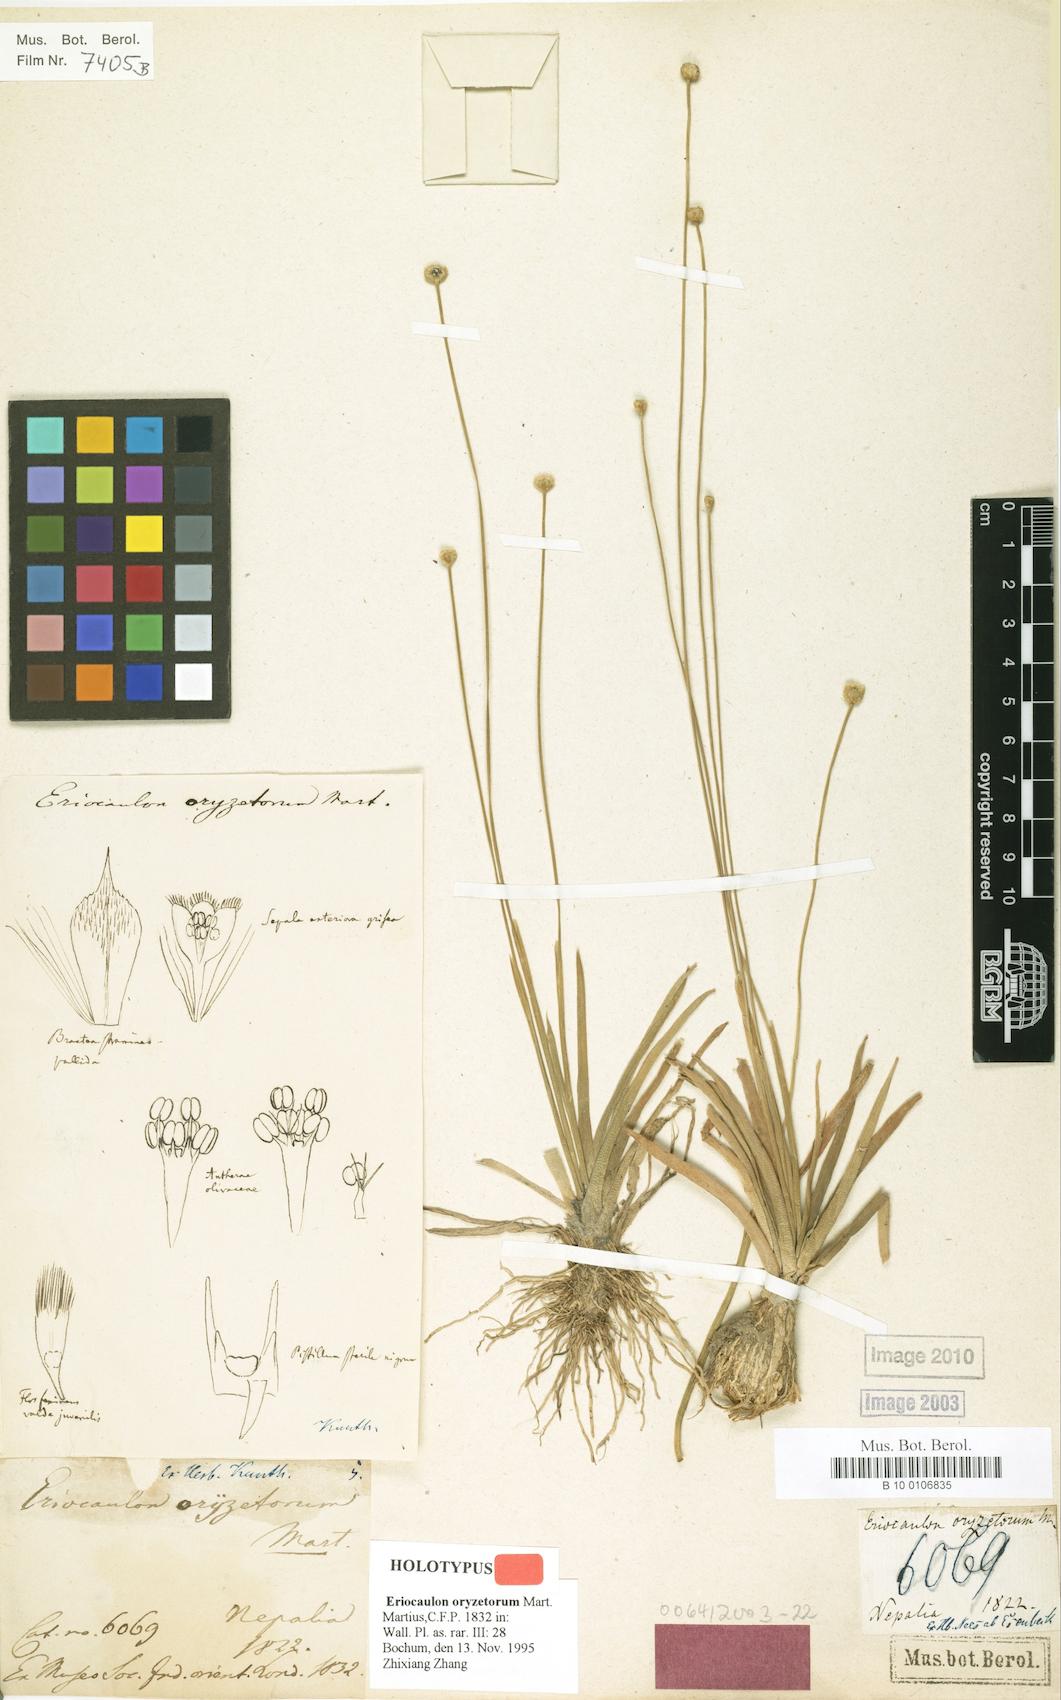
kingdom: Plantae
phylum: Tracheophyta
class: Liliopsida
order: Poales
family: Eriocaulaceae
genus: Eriocaulon
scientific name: Eriocaulon oryzetorum
